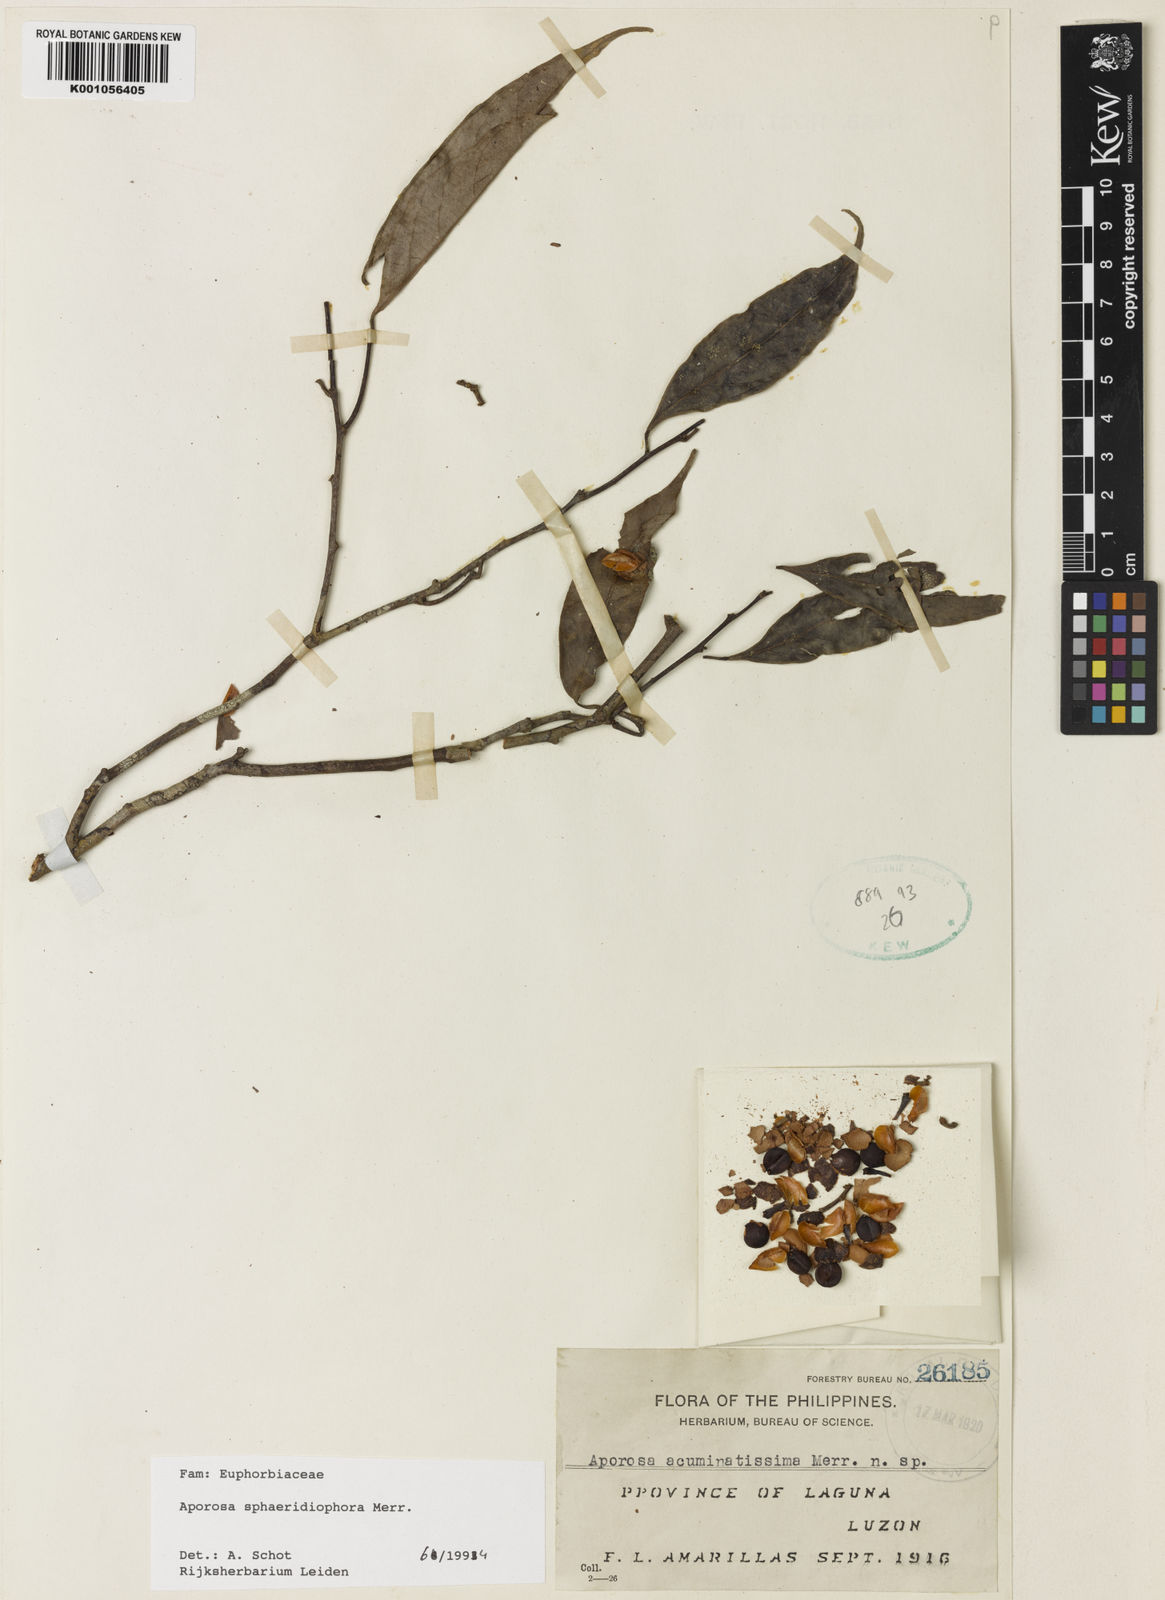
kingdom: Plantae
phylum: Tracheophyta
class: Magnoliopsida
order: Malpighiales
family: Phyllanthaceae
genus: Aporosa
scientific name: Aporosa sphaeridiophora
